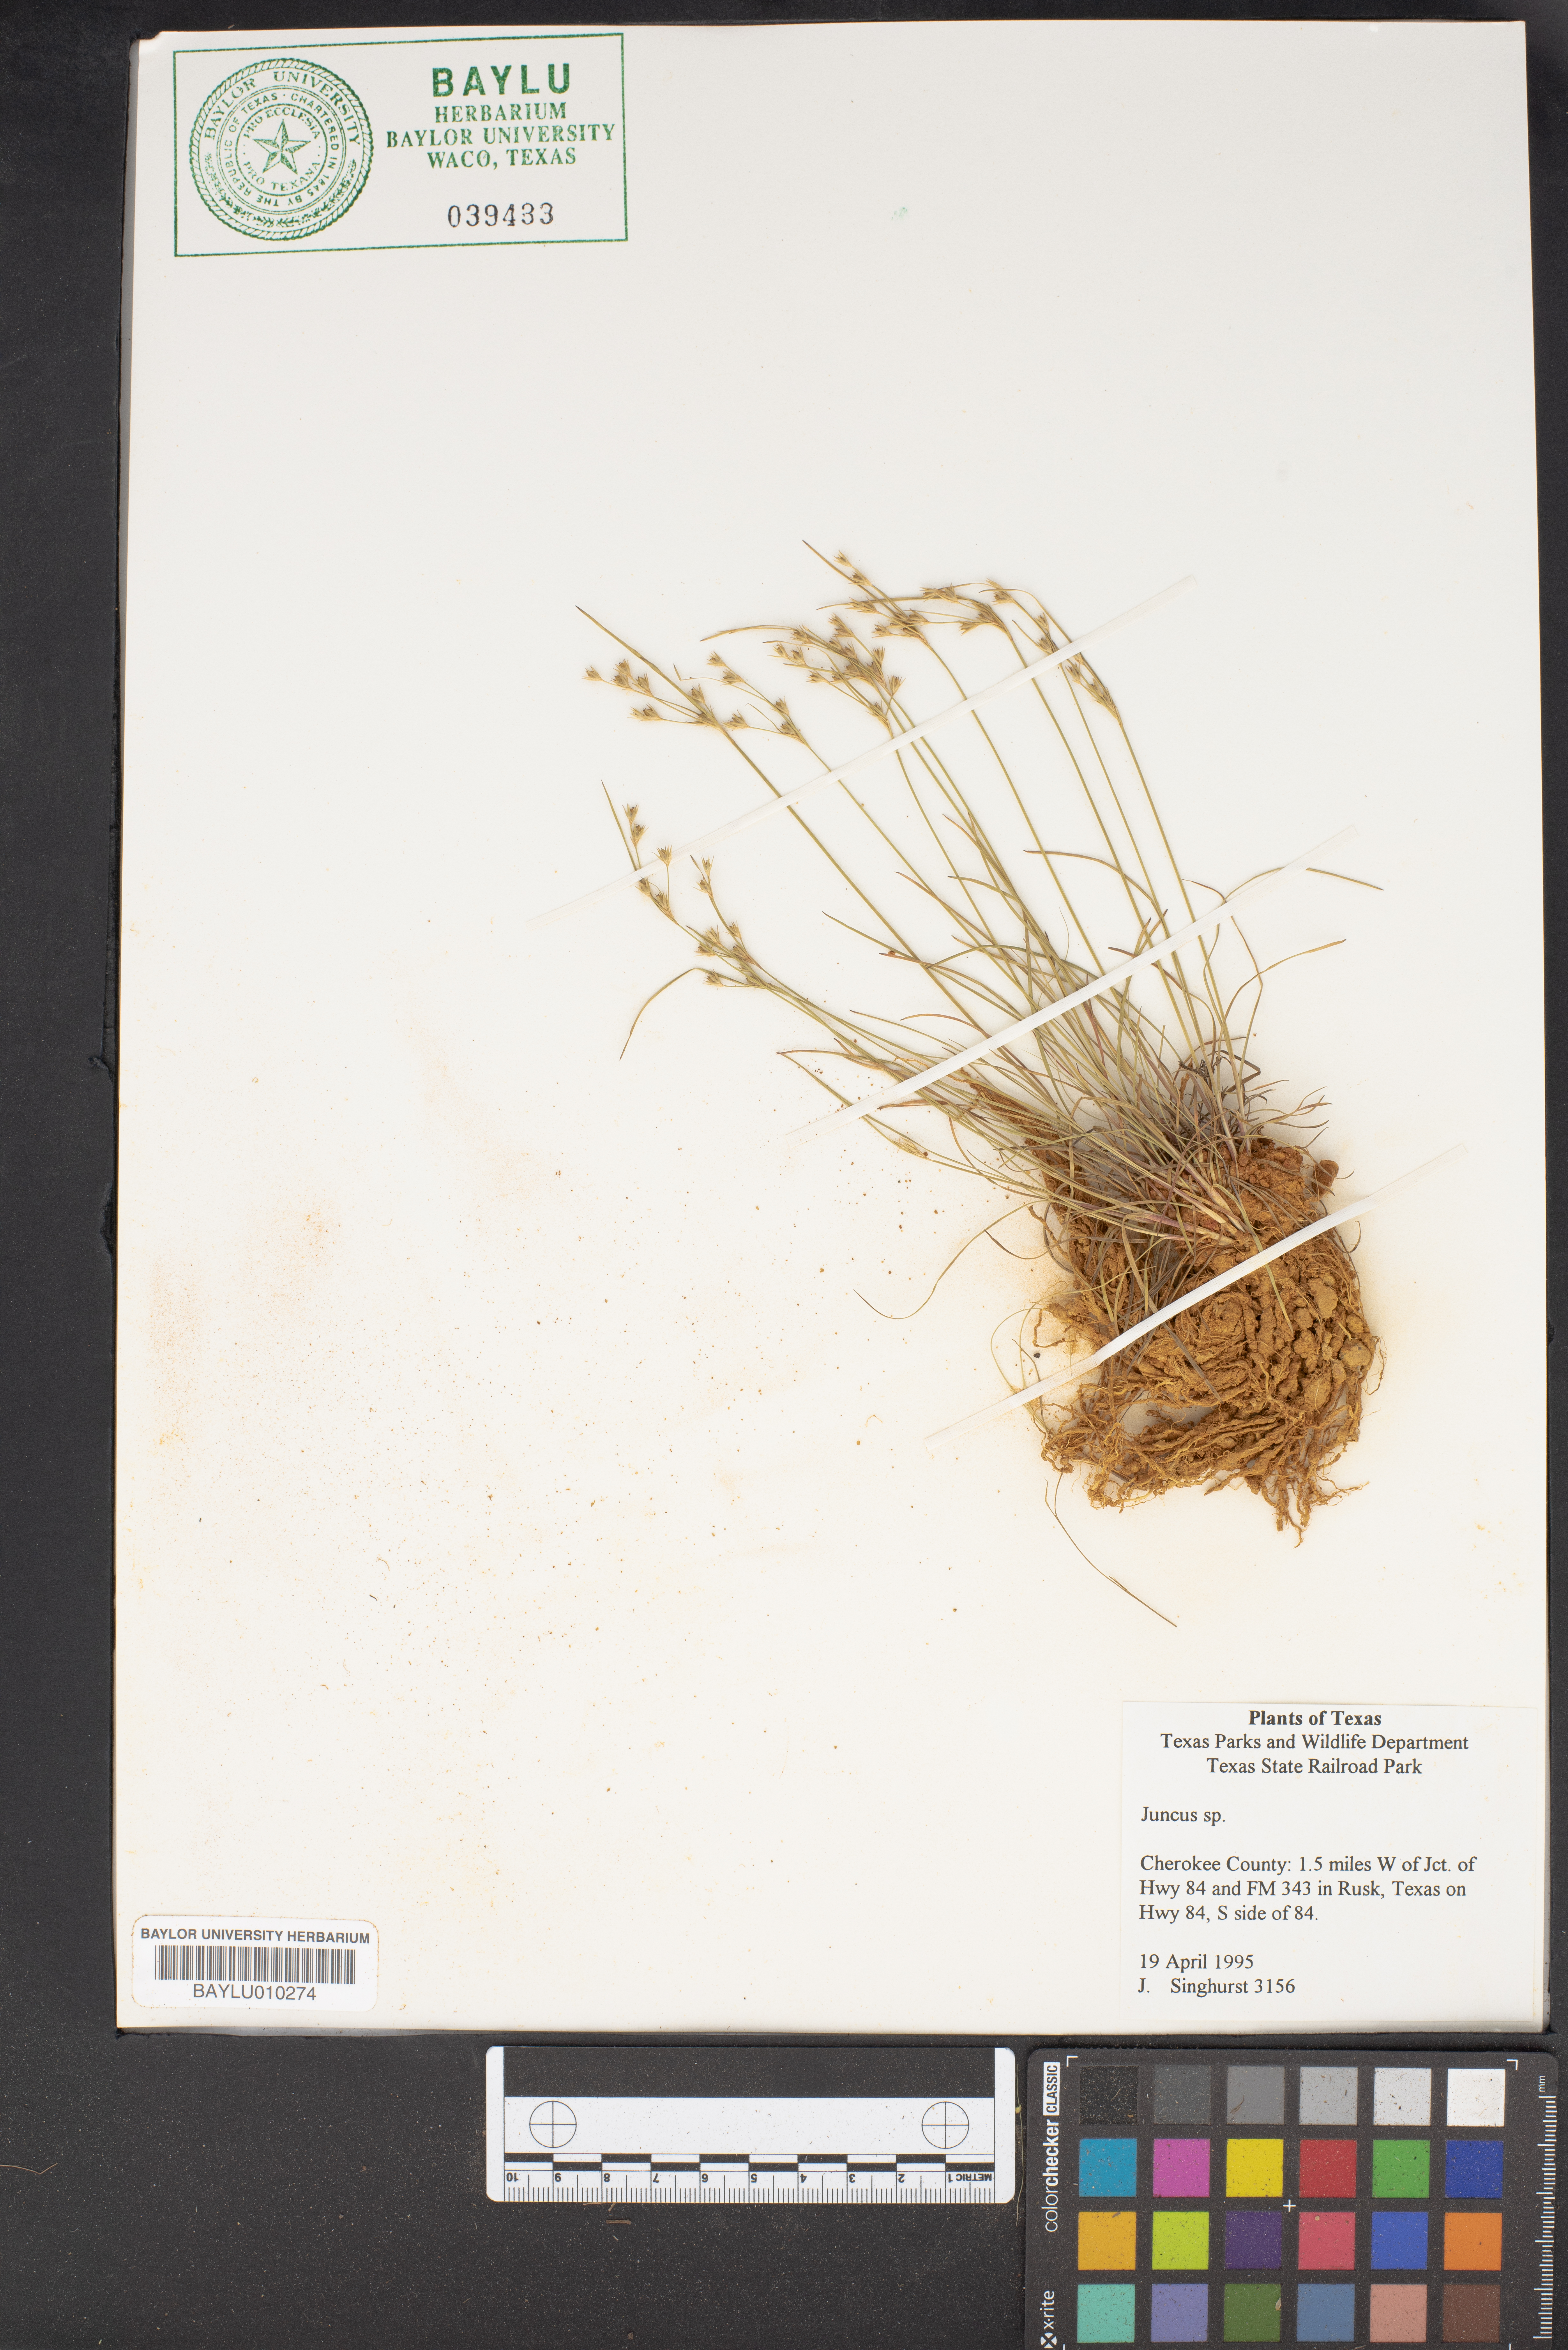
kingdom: Plantae
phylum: Tracheophyta
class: Liliopsida
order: Poales
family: Juncaceae
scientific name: Juncaceae
